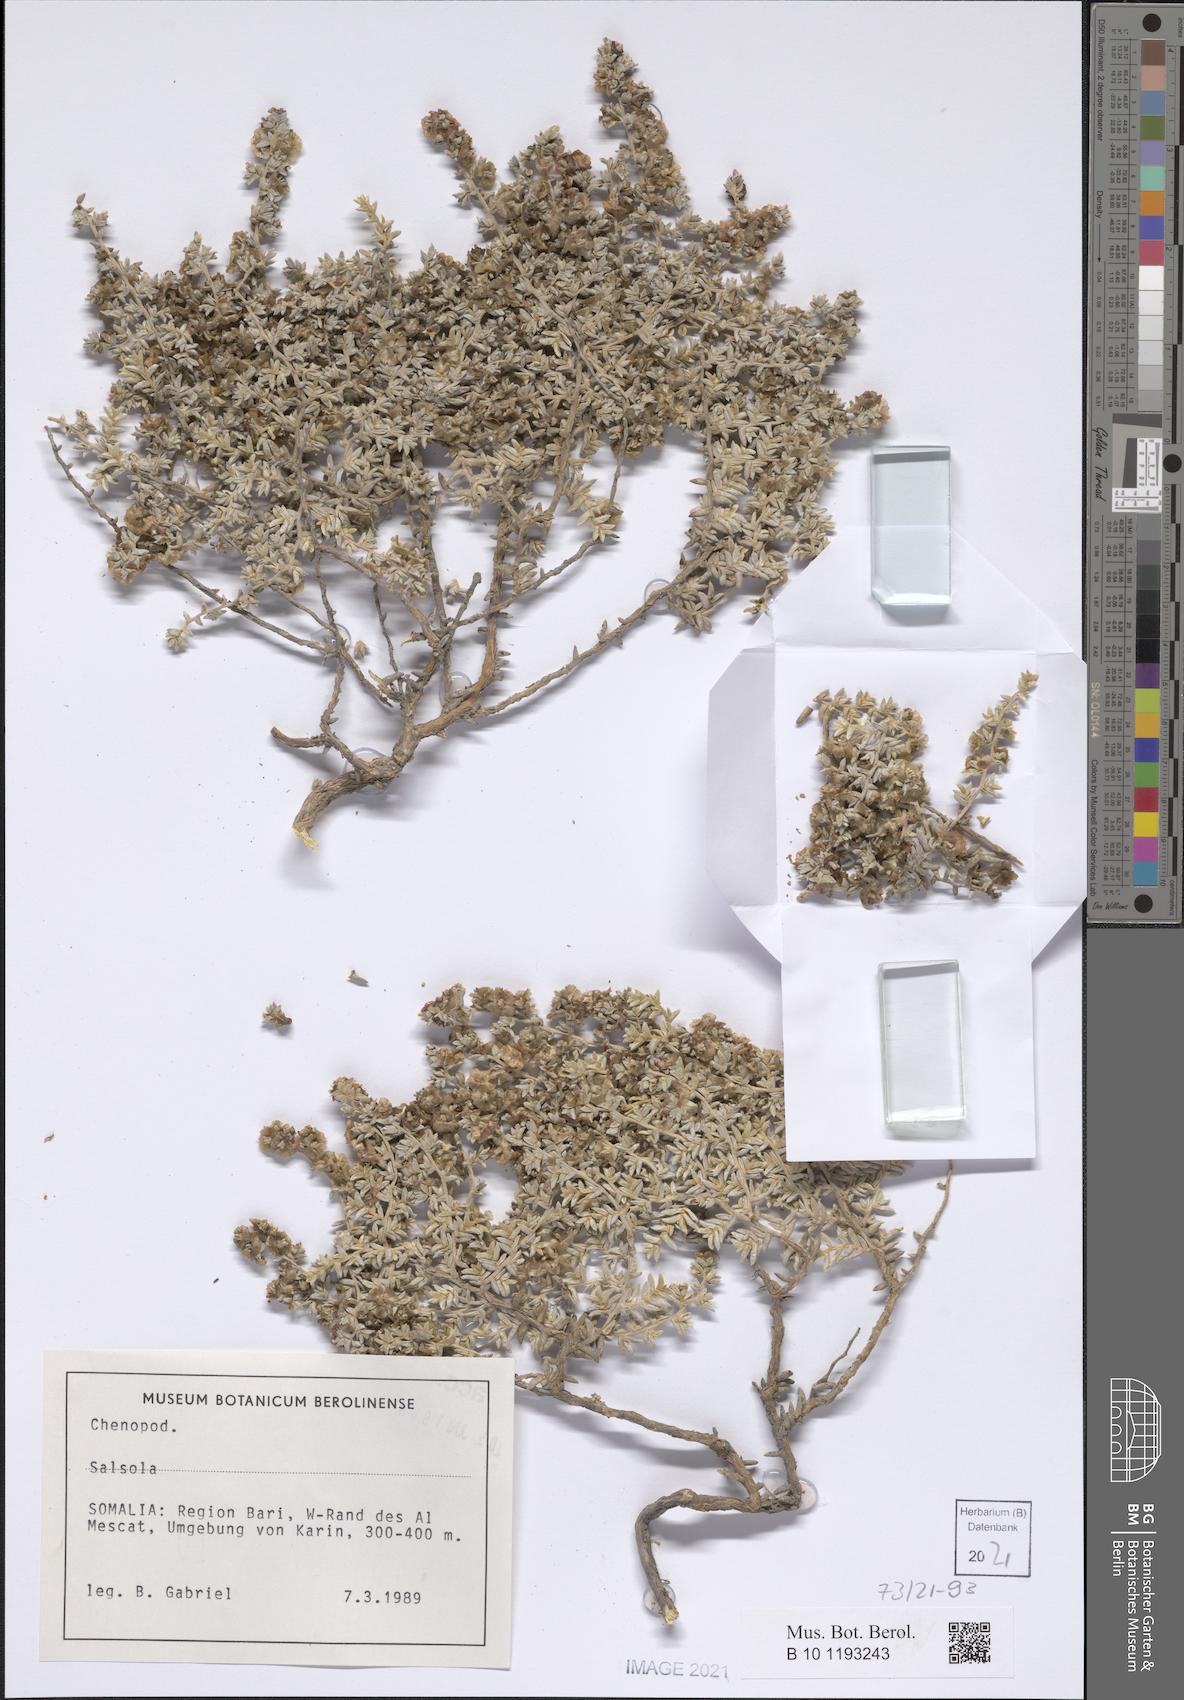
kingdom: Plantae
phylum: Tracheophyta
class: Magnoliopsida
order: Caryophyllales
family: Amaranthaceae
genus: Salsola
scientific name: Salsola
